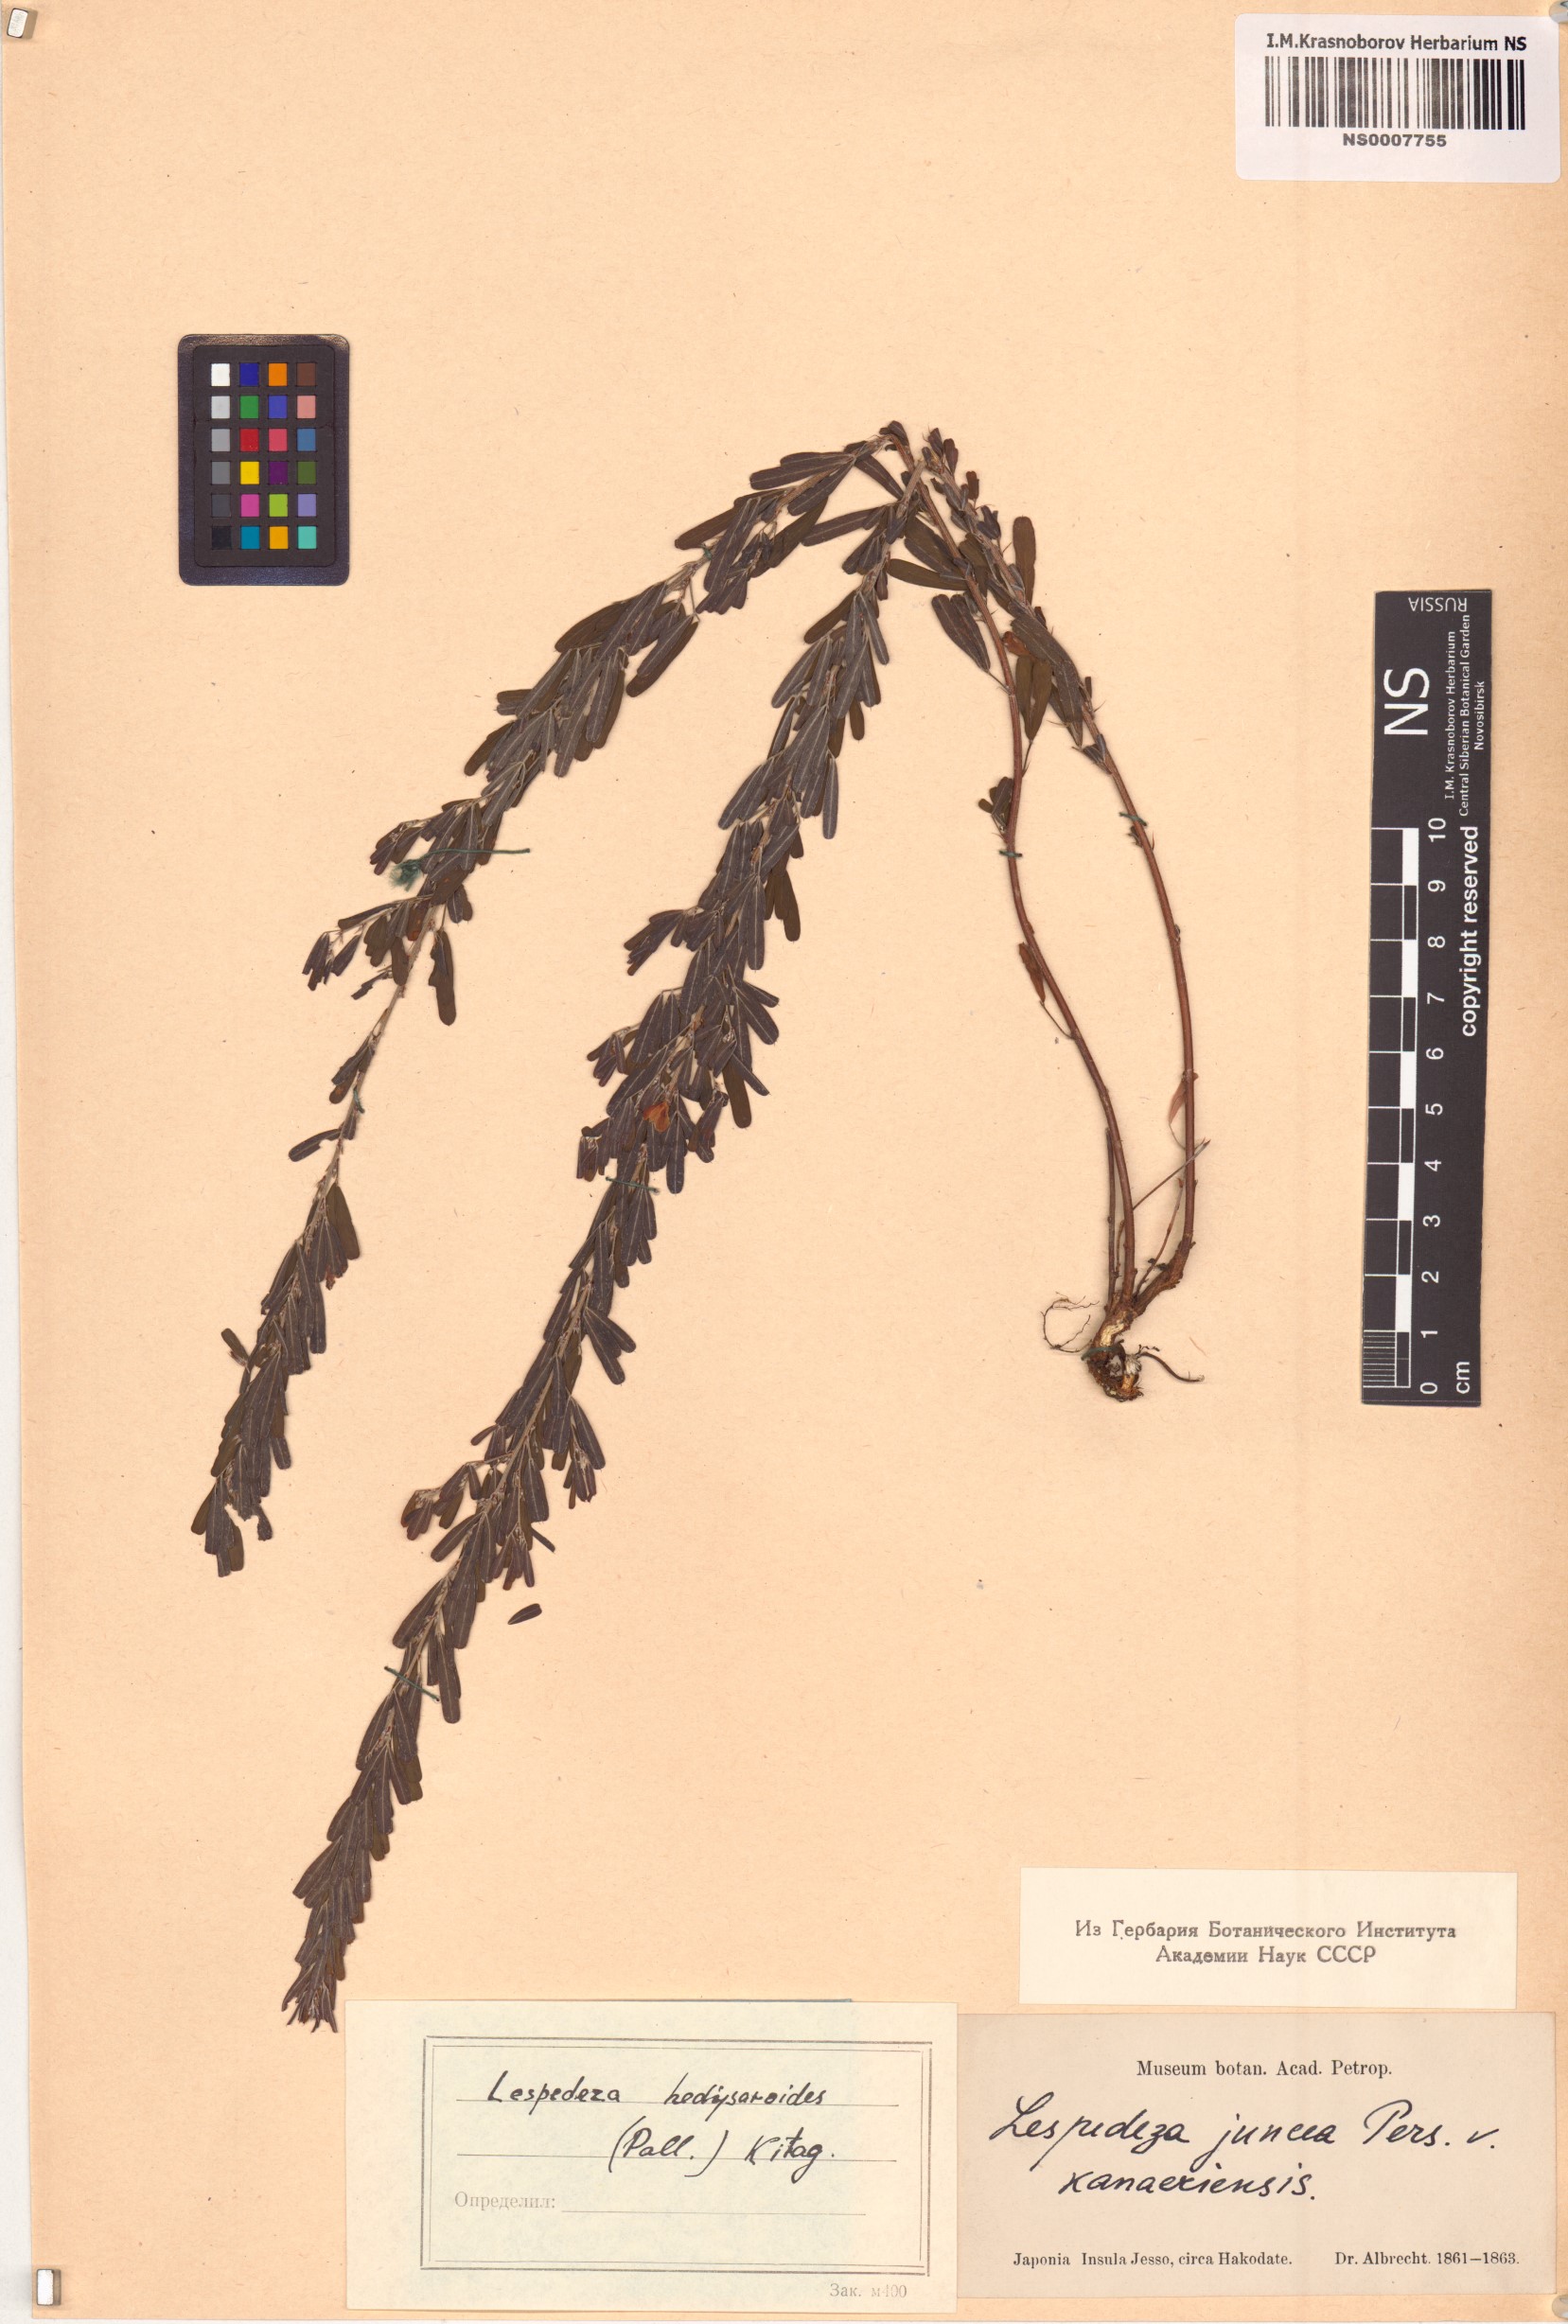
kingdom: Plantae
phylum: Tracheophyta
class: Magnoliopsida
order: Fabales
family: Fabaceae
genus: Lespedeza
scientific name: Lespedeza juncea
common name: Siberian lespedeza
